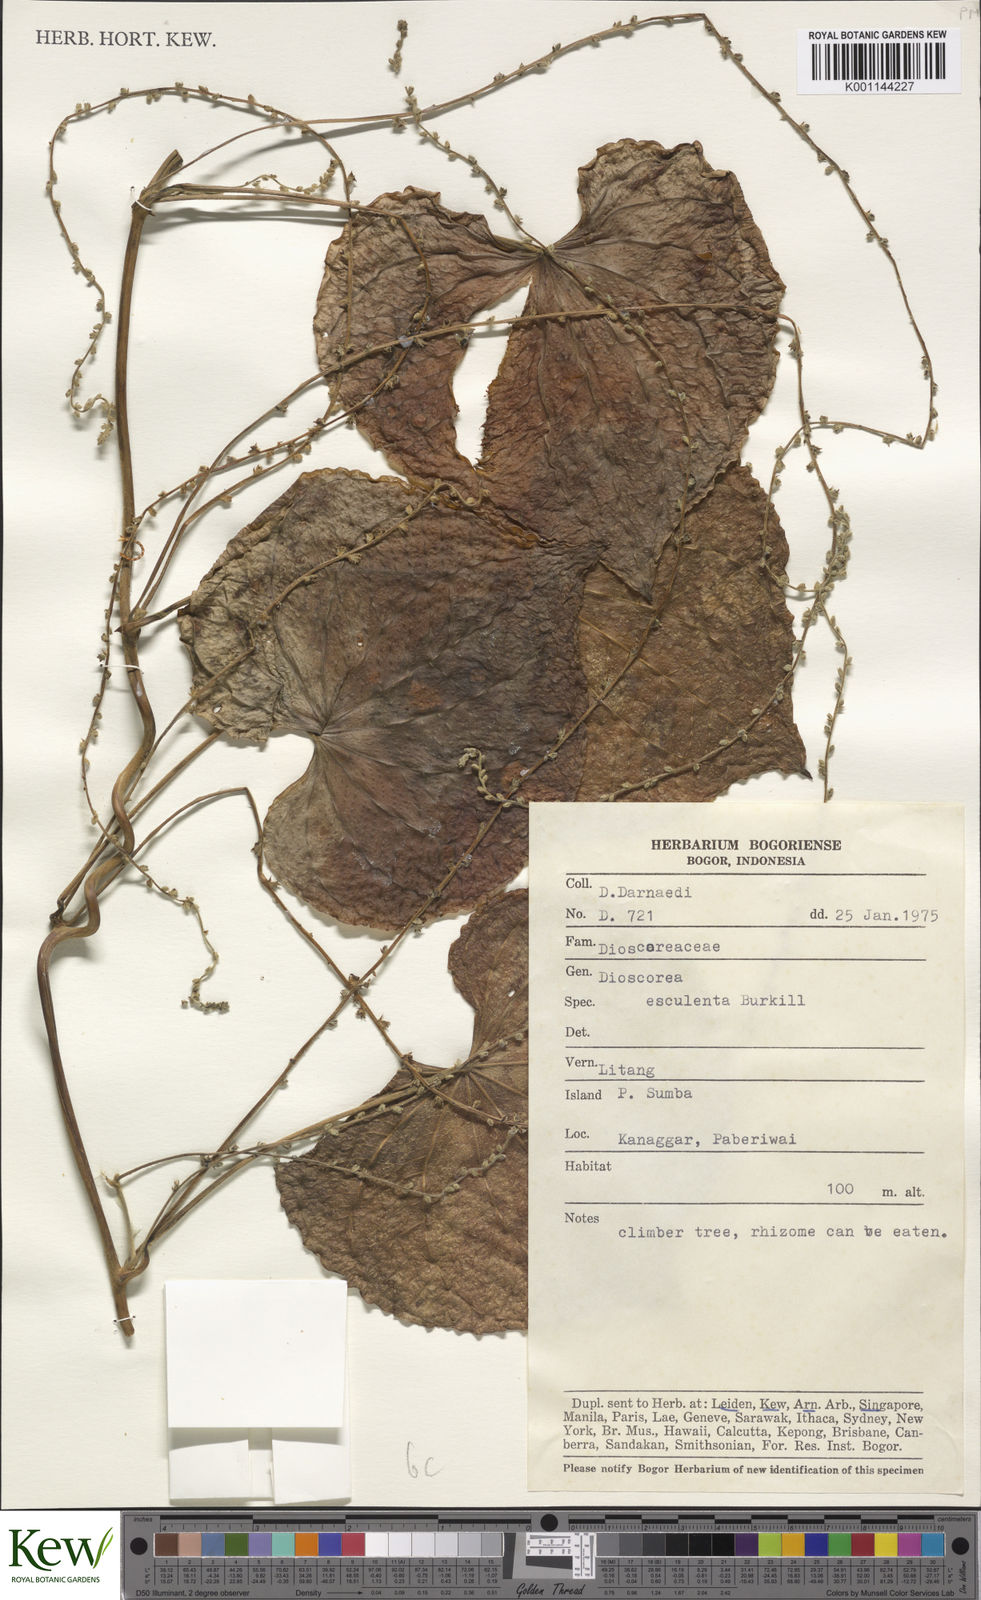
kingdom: Plantae
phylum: Tracheophyta
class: Liliopsida
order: Dioscoreales
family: Dioscoreaceae
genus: Dioscorea
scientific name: Dioscorea esculenta
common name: Chinese yam
